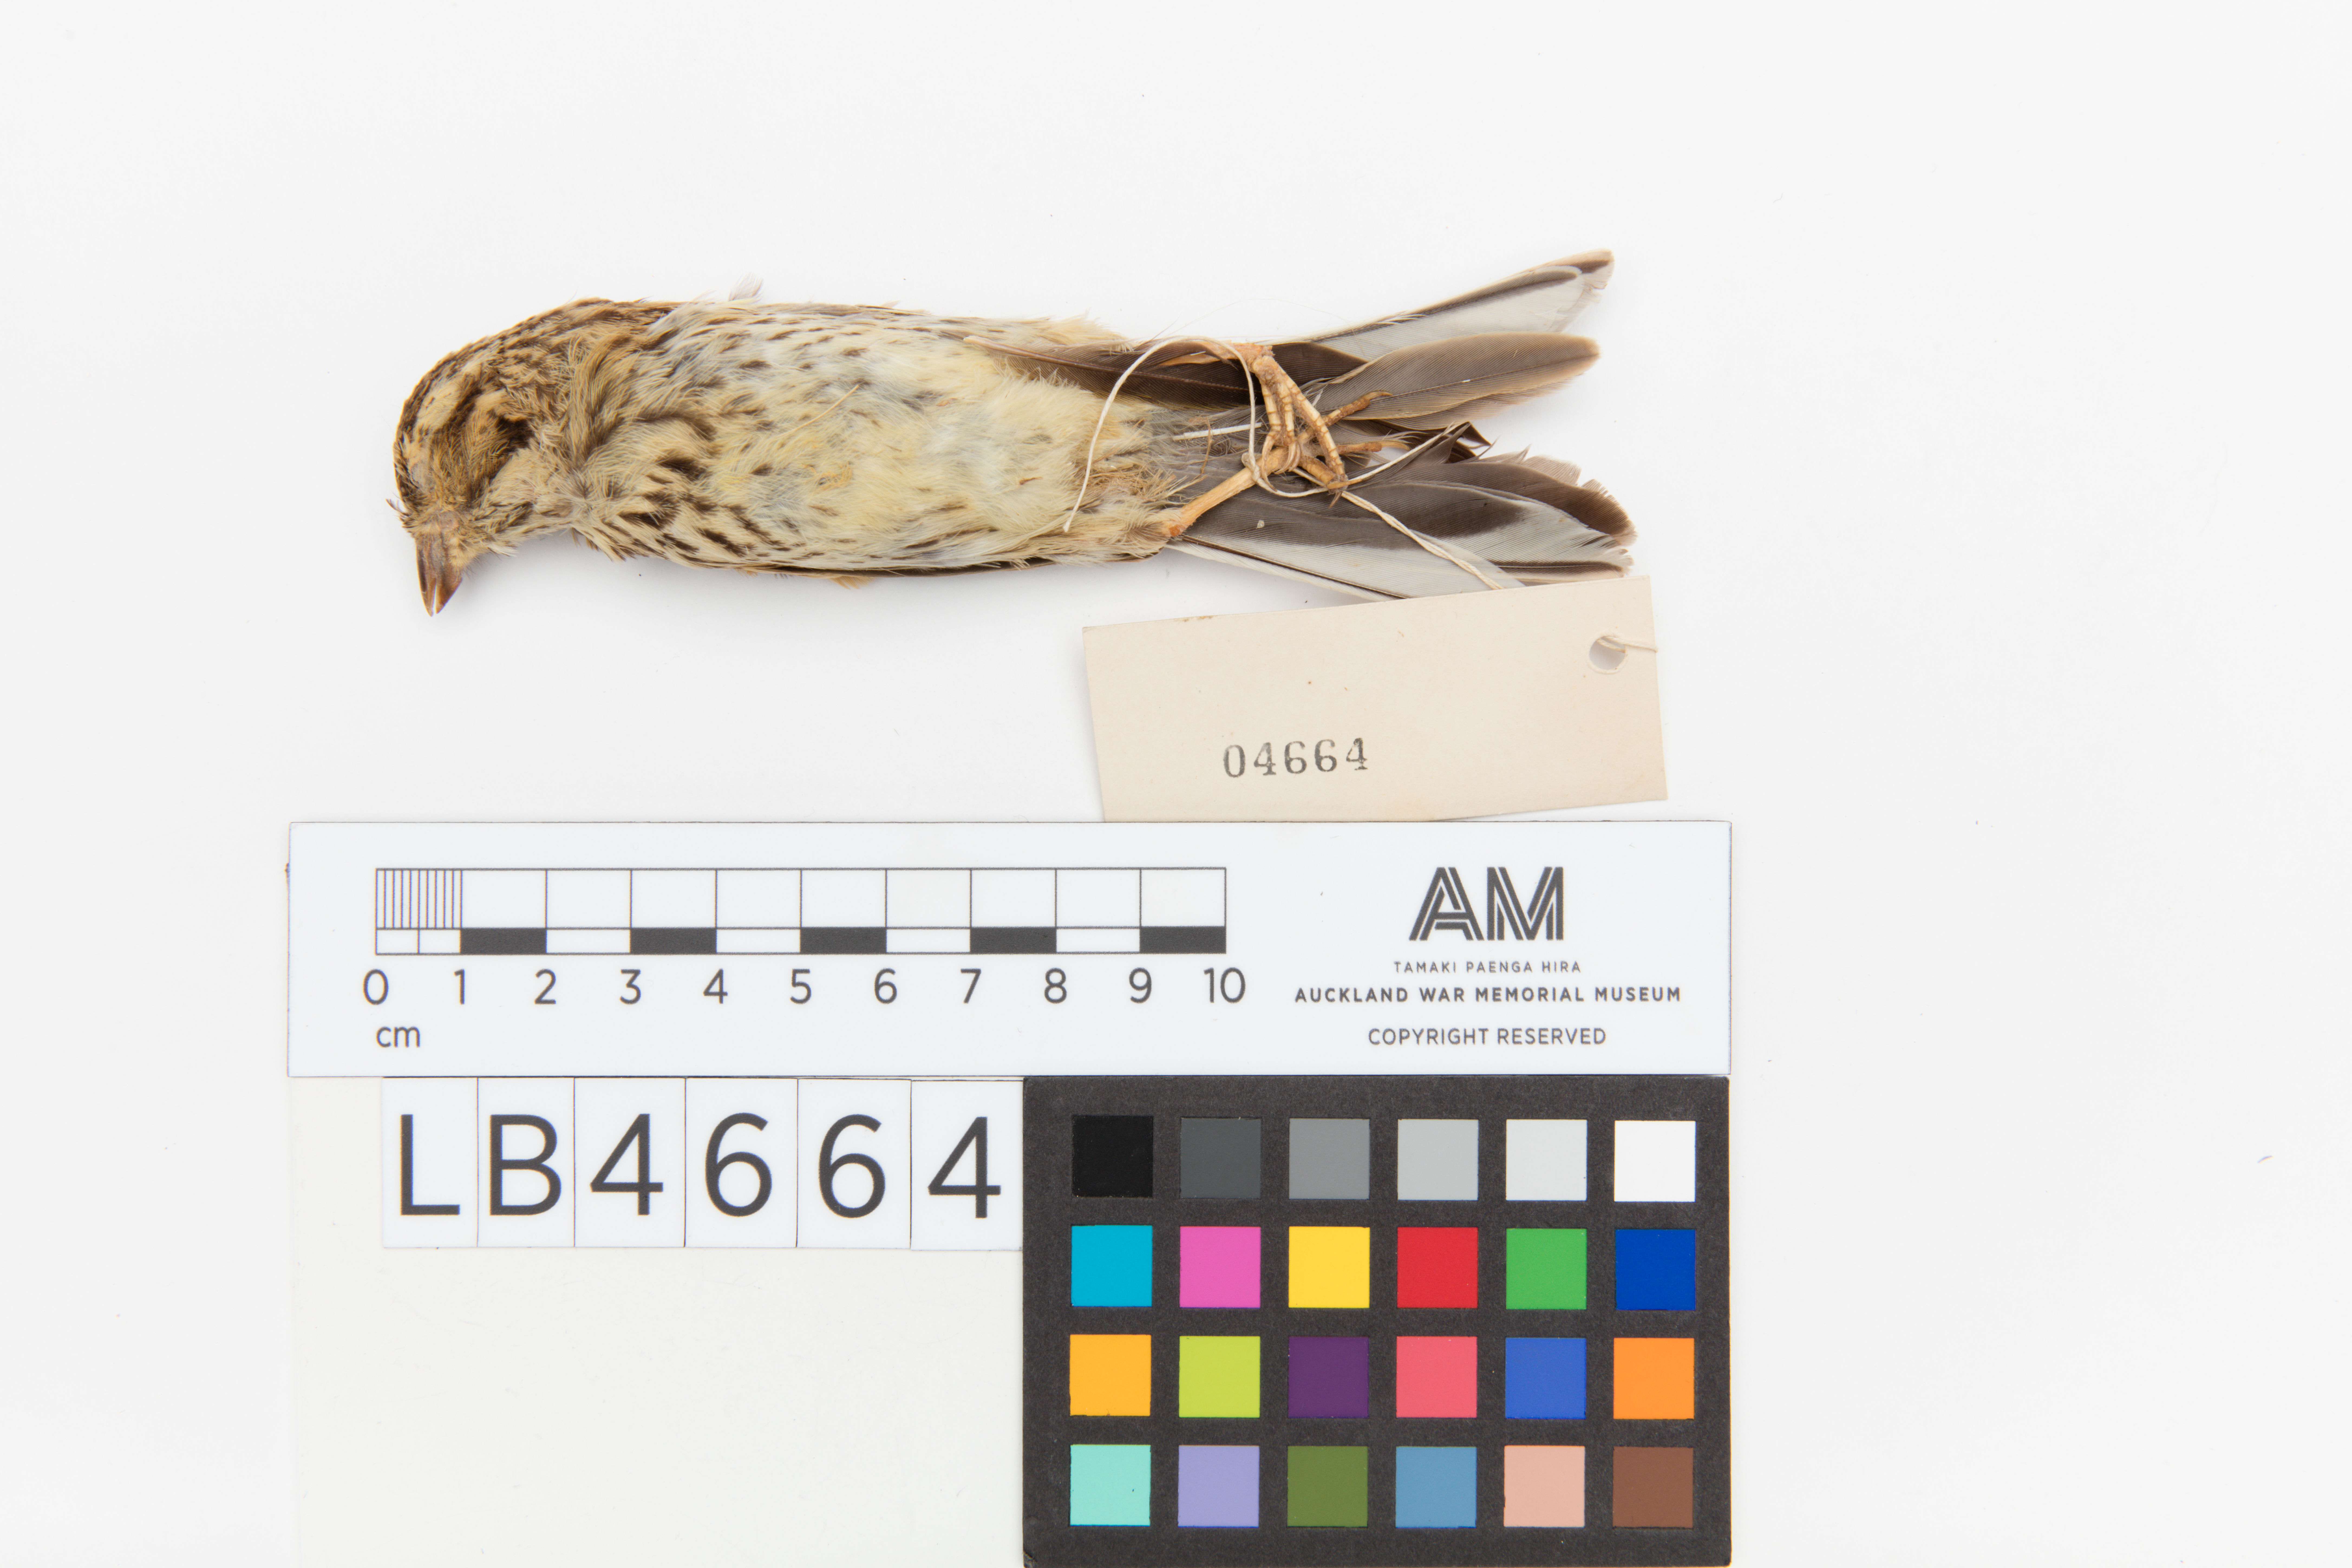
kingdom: Animalia
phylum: Chordata
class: Aves
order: Passeriformes
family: Emberizidae
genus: Emberiza
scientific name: Emberiza cirlus
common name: Cirl bunting
